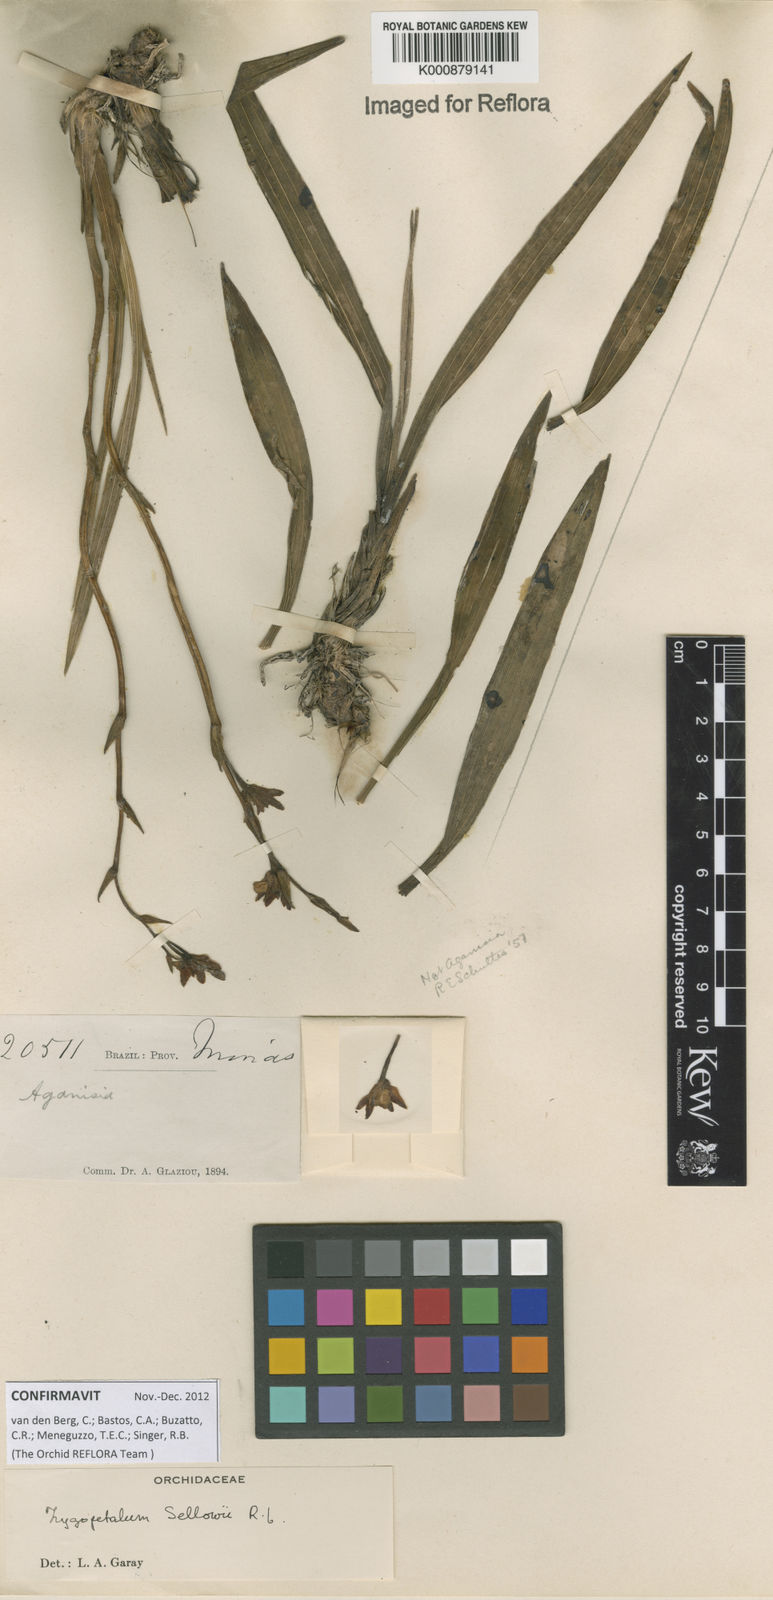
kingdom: Plantae
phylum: Tracheophyta
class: Liliopsida
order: Asparagales
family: Orchidaceae
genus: Zygopetalum
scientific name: Zygopetalum sellowii
